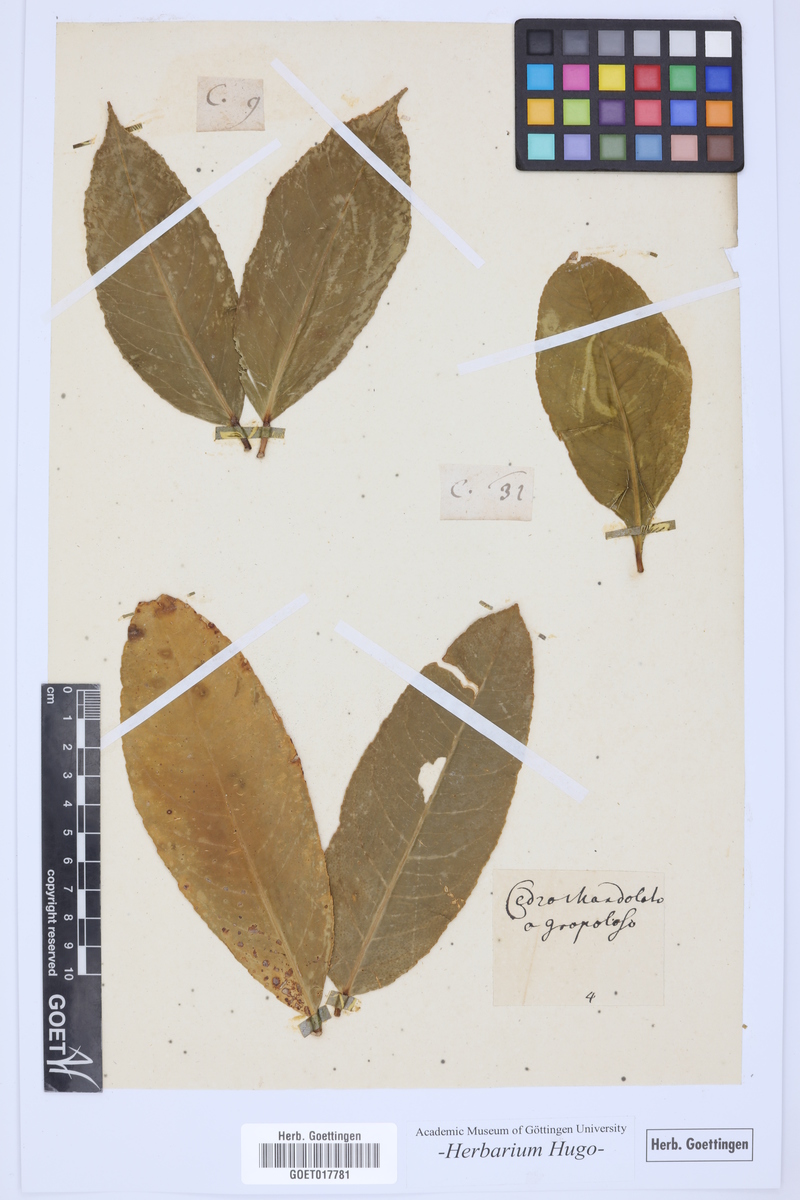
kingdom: Plantae
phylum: Tracheophyta
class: Magnoliopsida
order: Sapindales
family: Rutaceae
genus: Citrus
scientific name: Citrus
